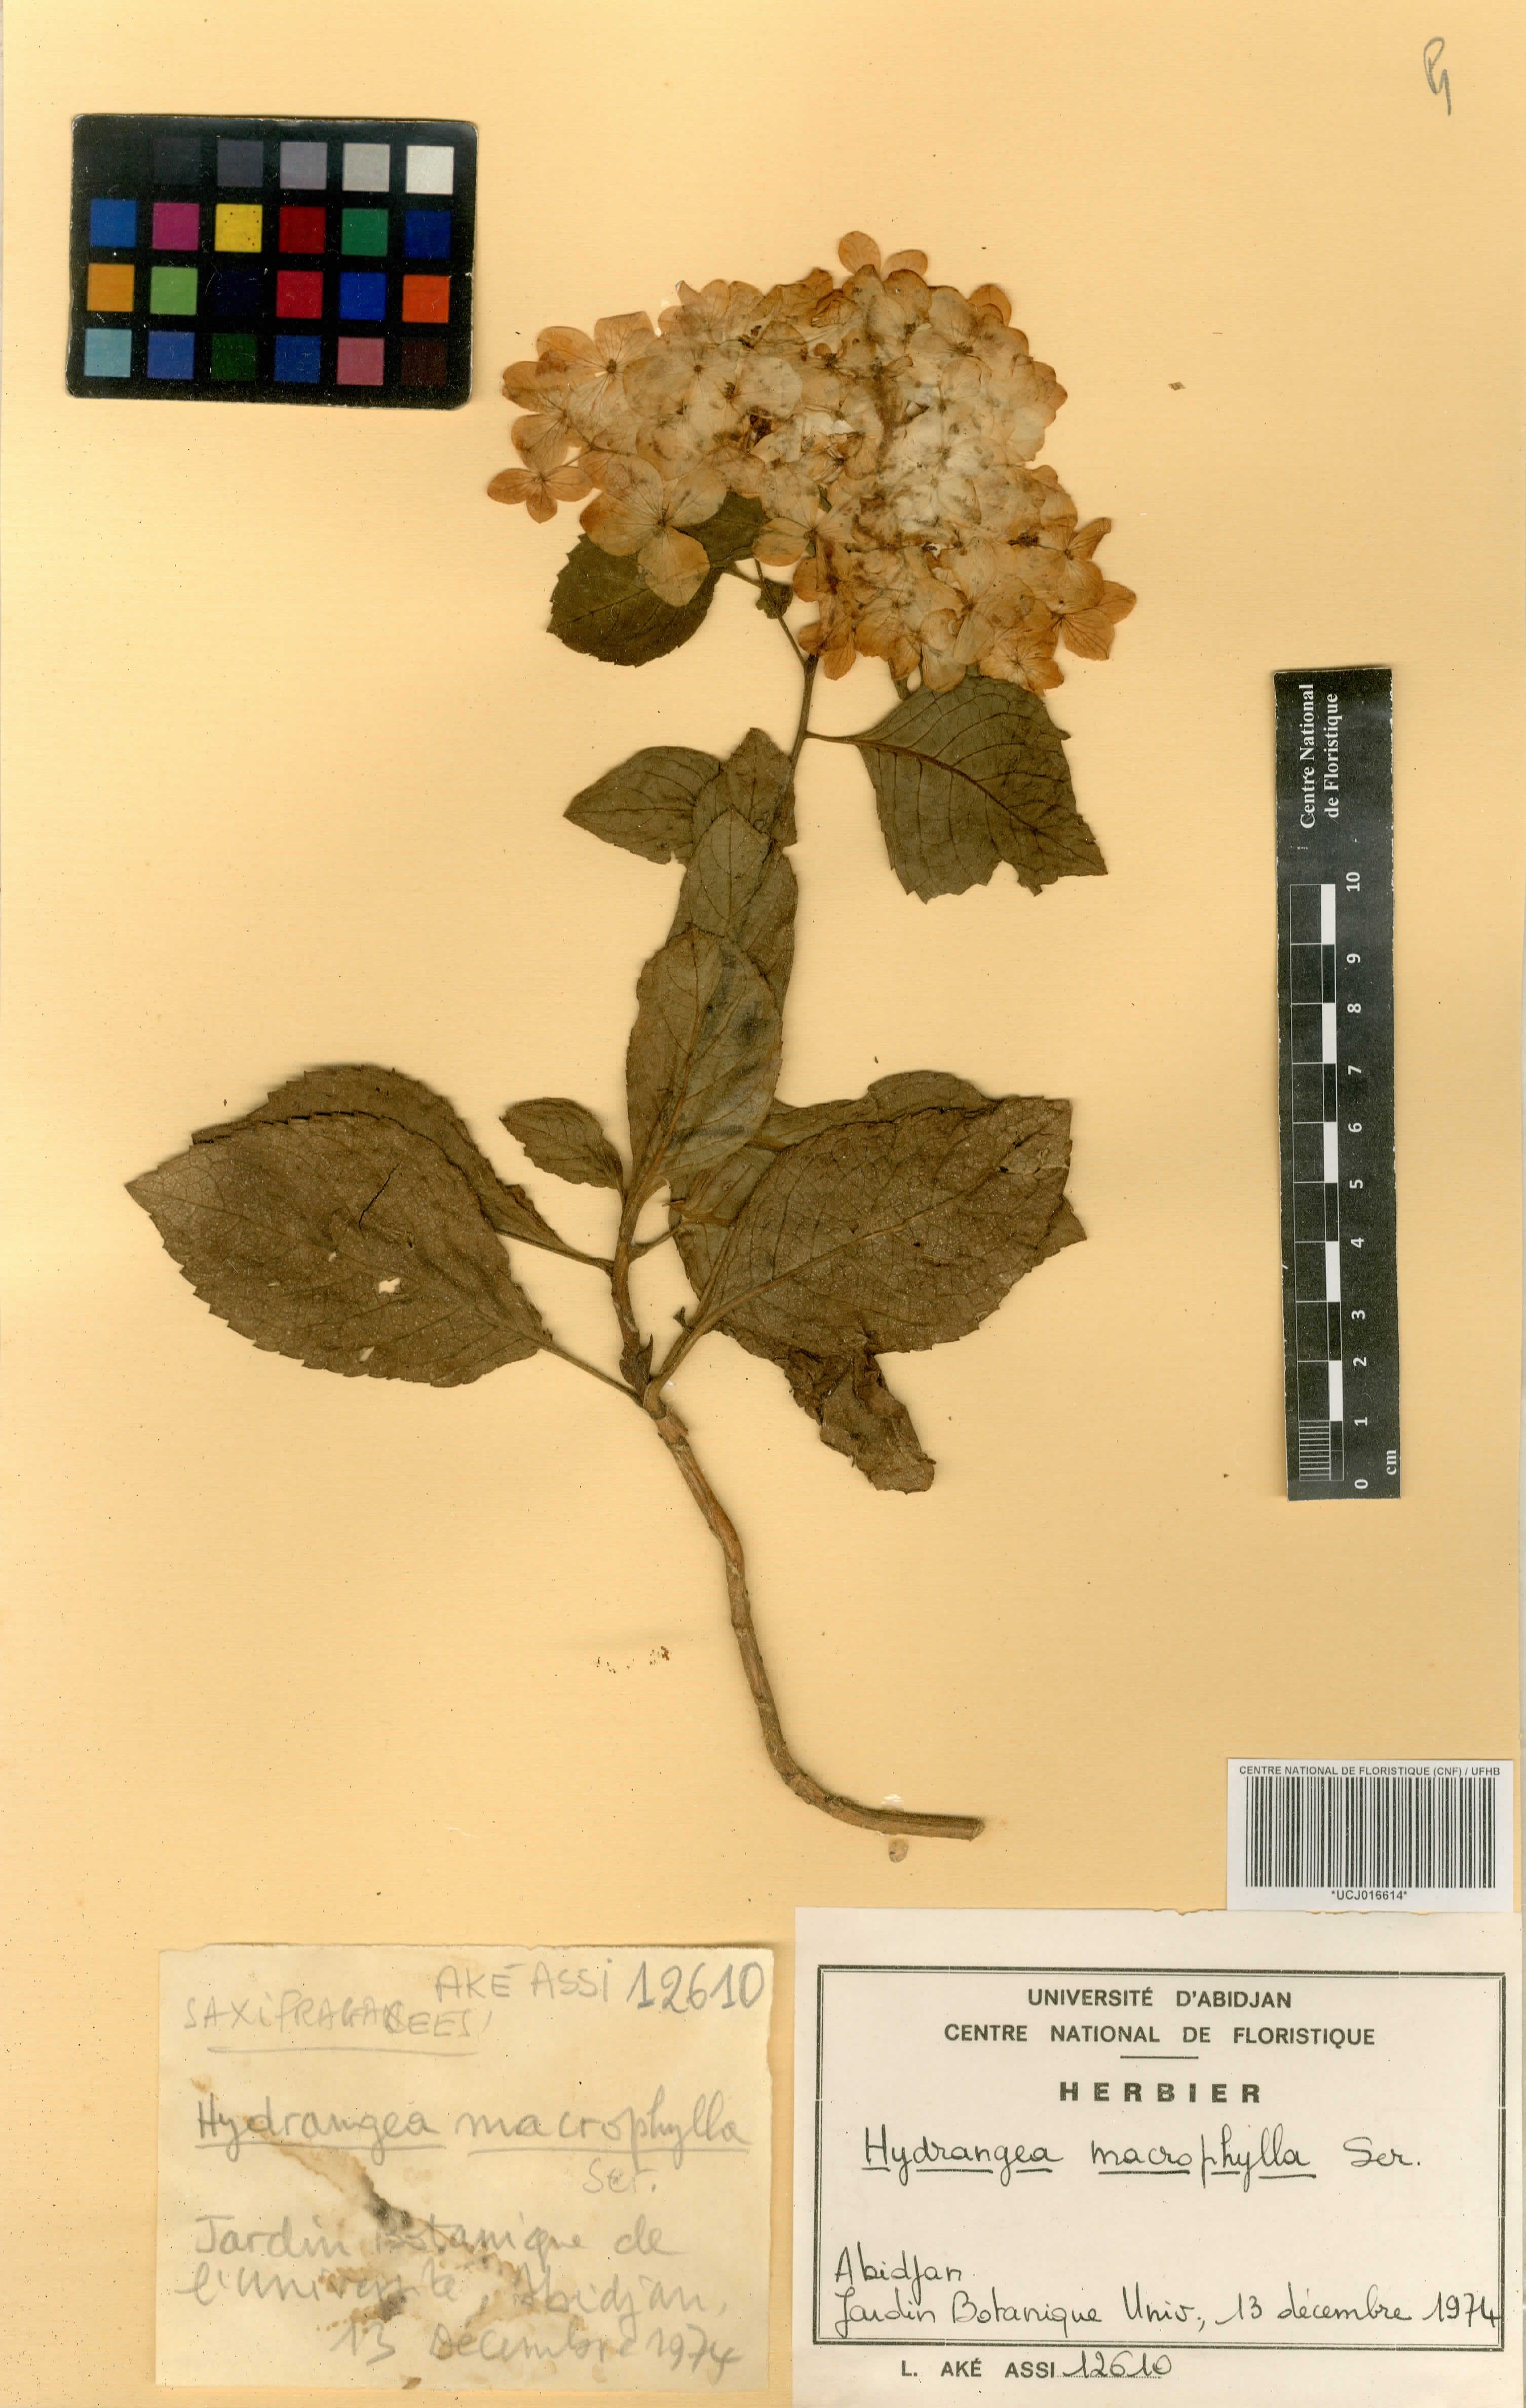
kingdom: Plantae
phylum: Tracheophyta
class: Magnoliopsida
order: Cornales
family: Hydrangeaceae
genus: Hydrangea
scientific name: Hydrangea macrophylla
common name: Hydrangea
